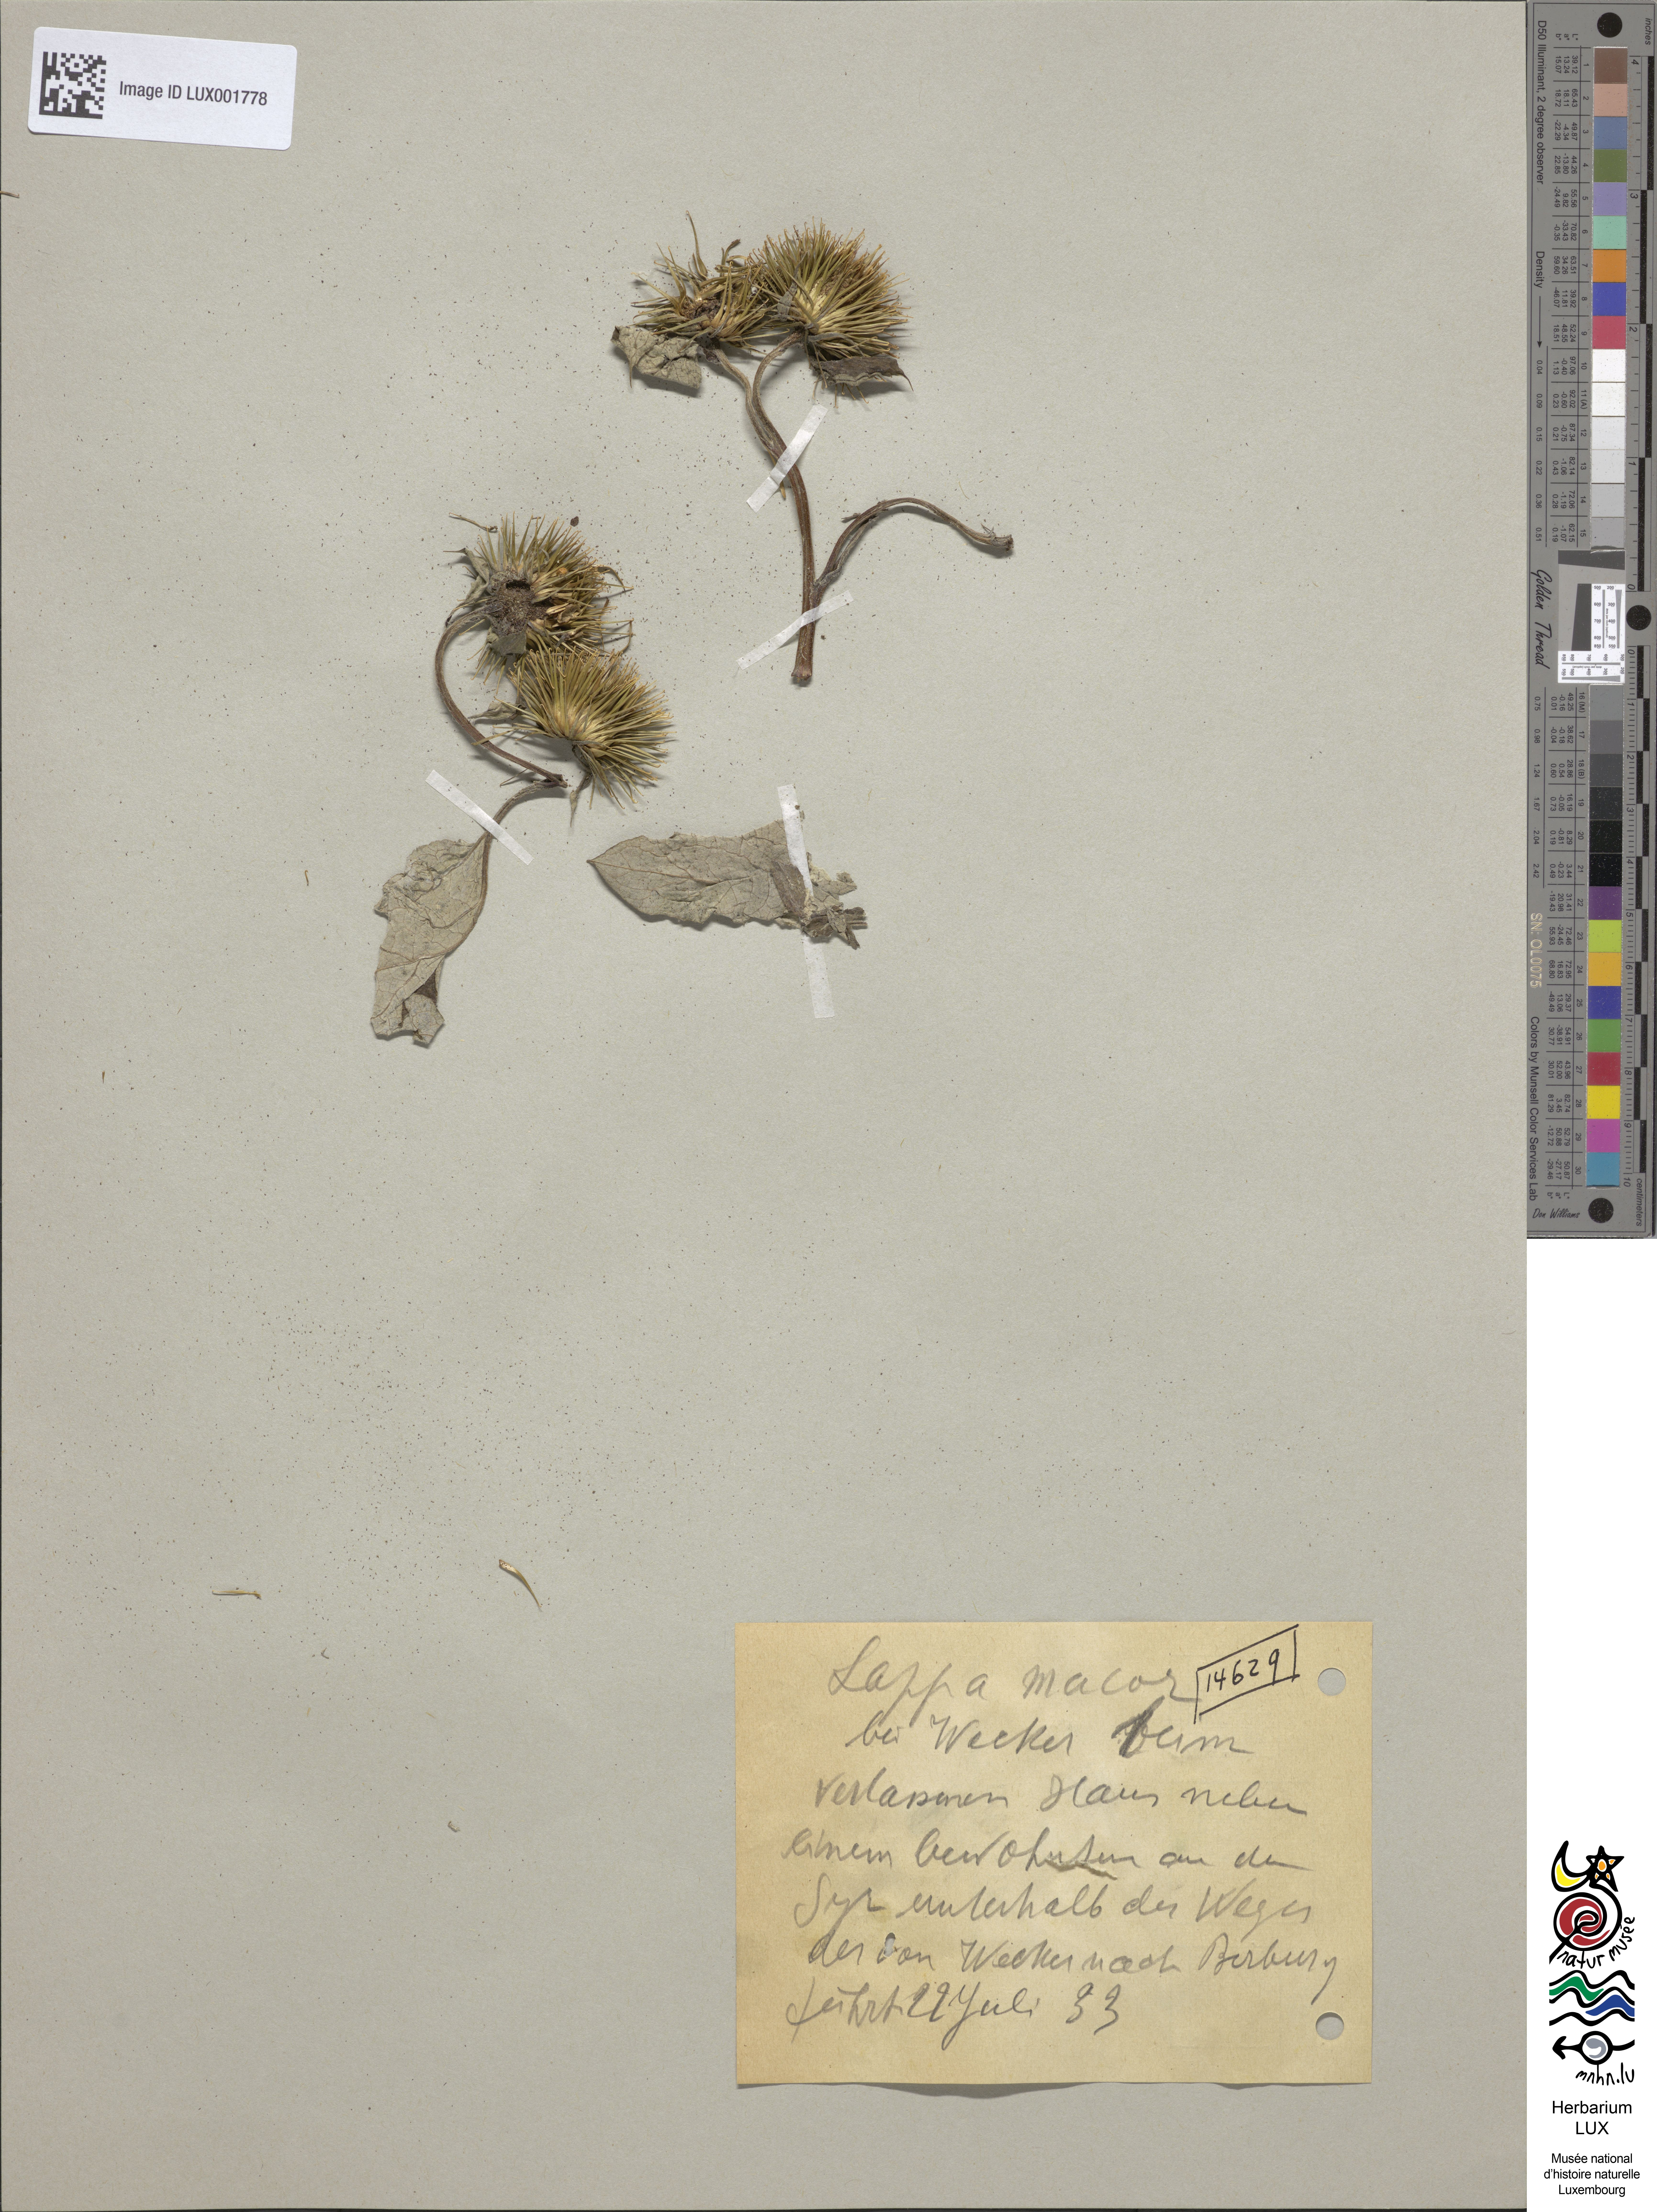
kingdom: Plantae
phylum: Tracheophyta
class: Magnoliopsida
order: Asterales
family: Asteraceae
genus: Arctium
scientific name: Arctium lappa
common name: Greater burdock
